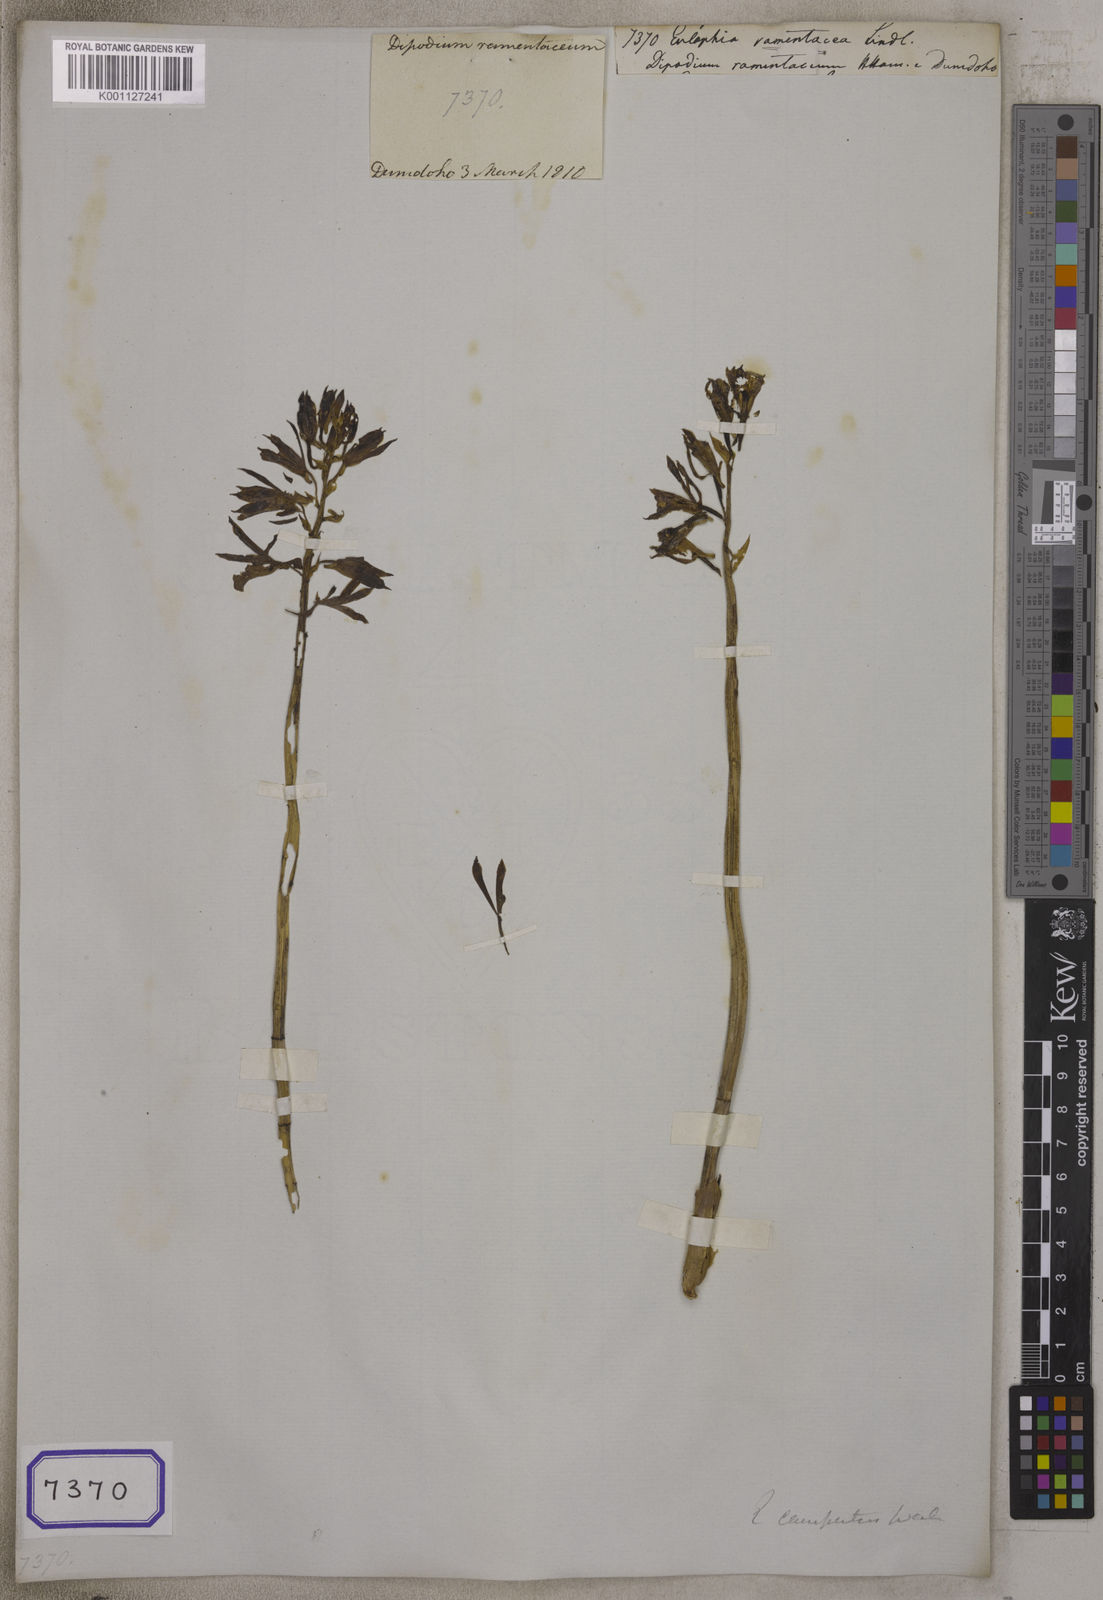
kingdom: Plantae
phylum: Tracheophyta
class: Liliopsida
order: Asparagales
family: Orchidaceae
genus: Eulophia
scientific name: Eulophia dabia
